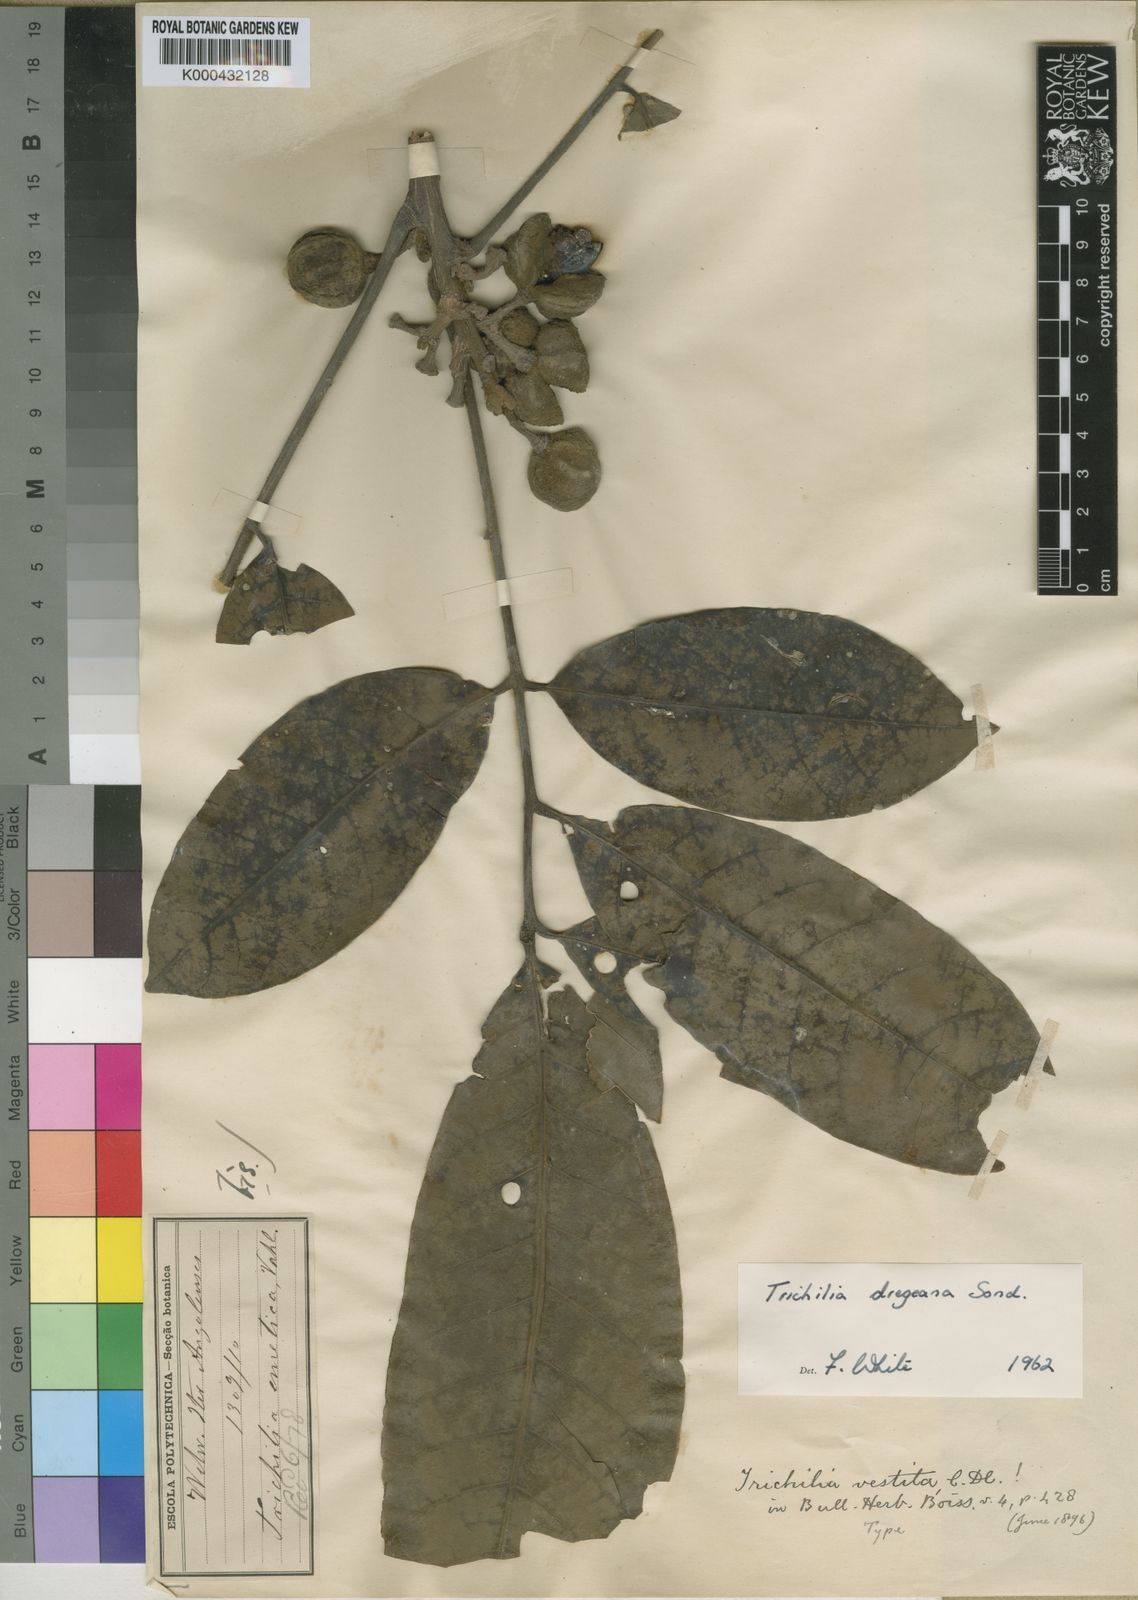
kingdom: Plantae
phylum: Tracheophyta
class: Magnoliopsida
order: Sapindales
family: Meliaceae
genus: Trichilia
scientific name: Trichilia dregeana
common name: Christmas-bells
